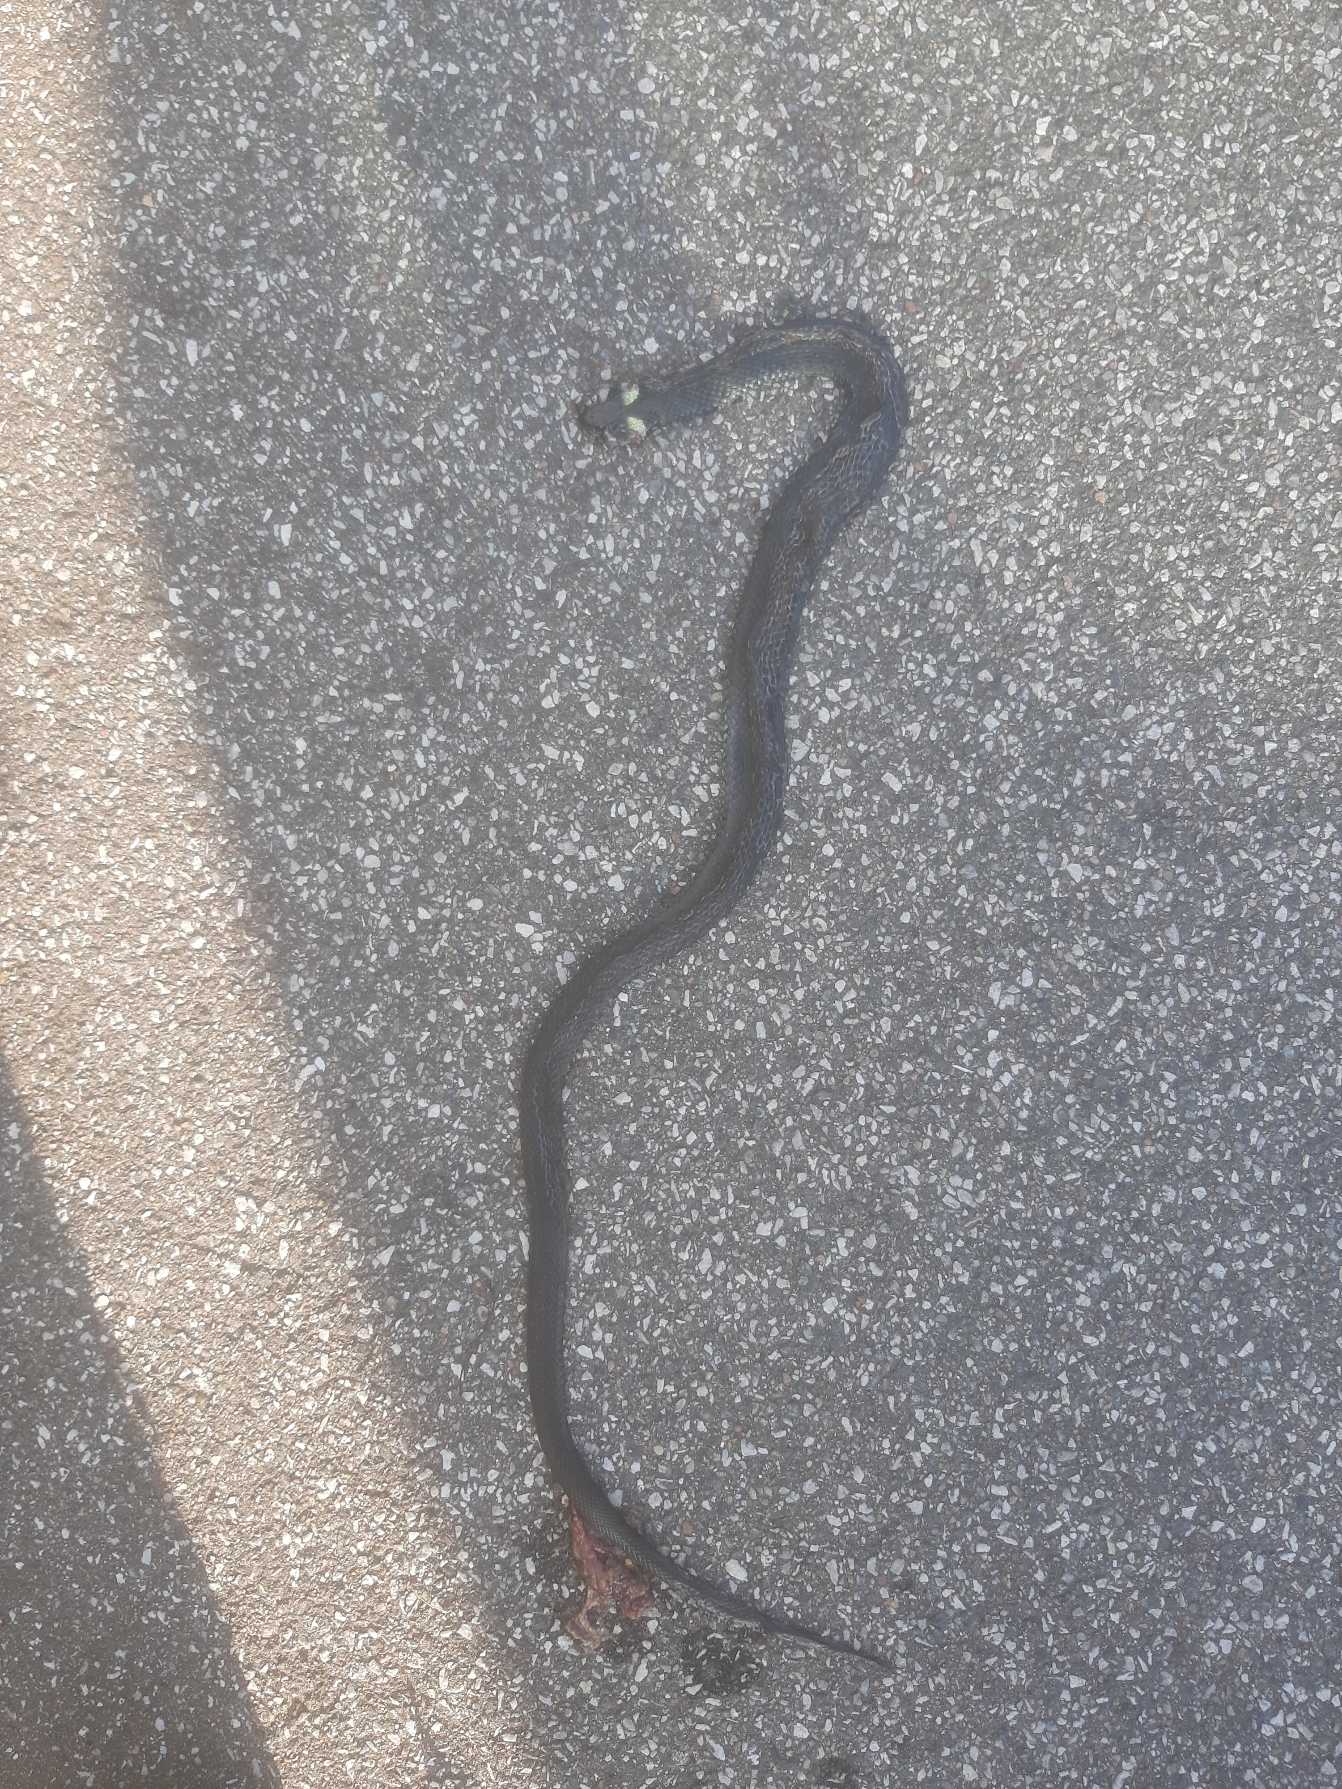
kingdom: Animalia
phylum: Chordata
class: Squamata
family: Colubridae
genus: Natrix
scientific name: Natrix natrix
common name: Snog
